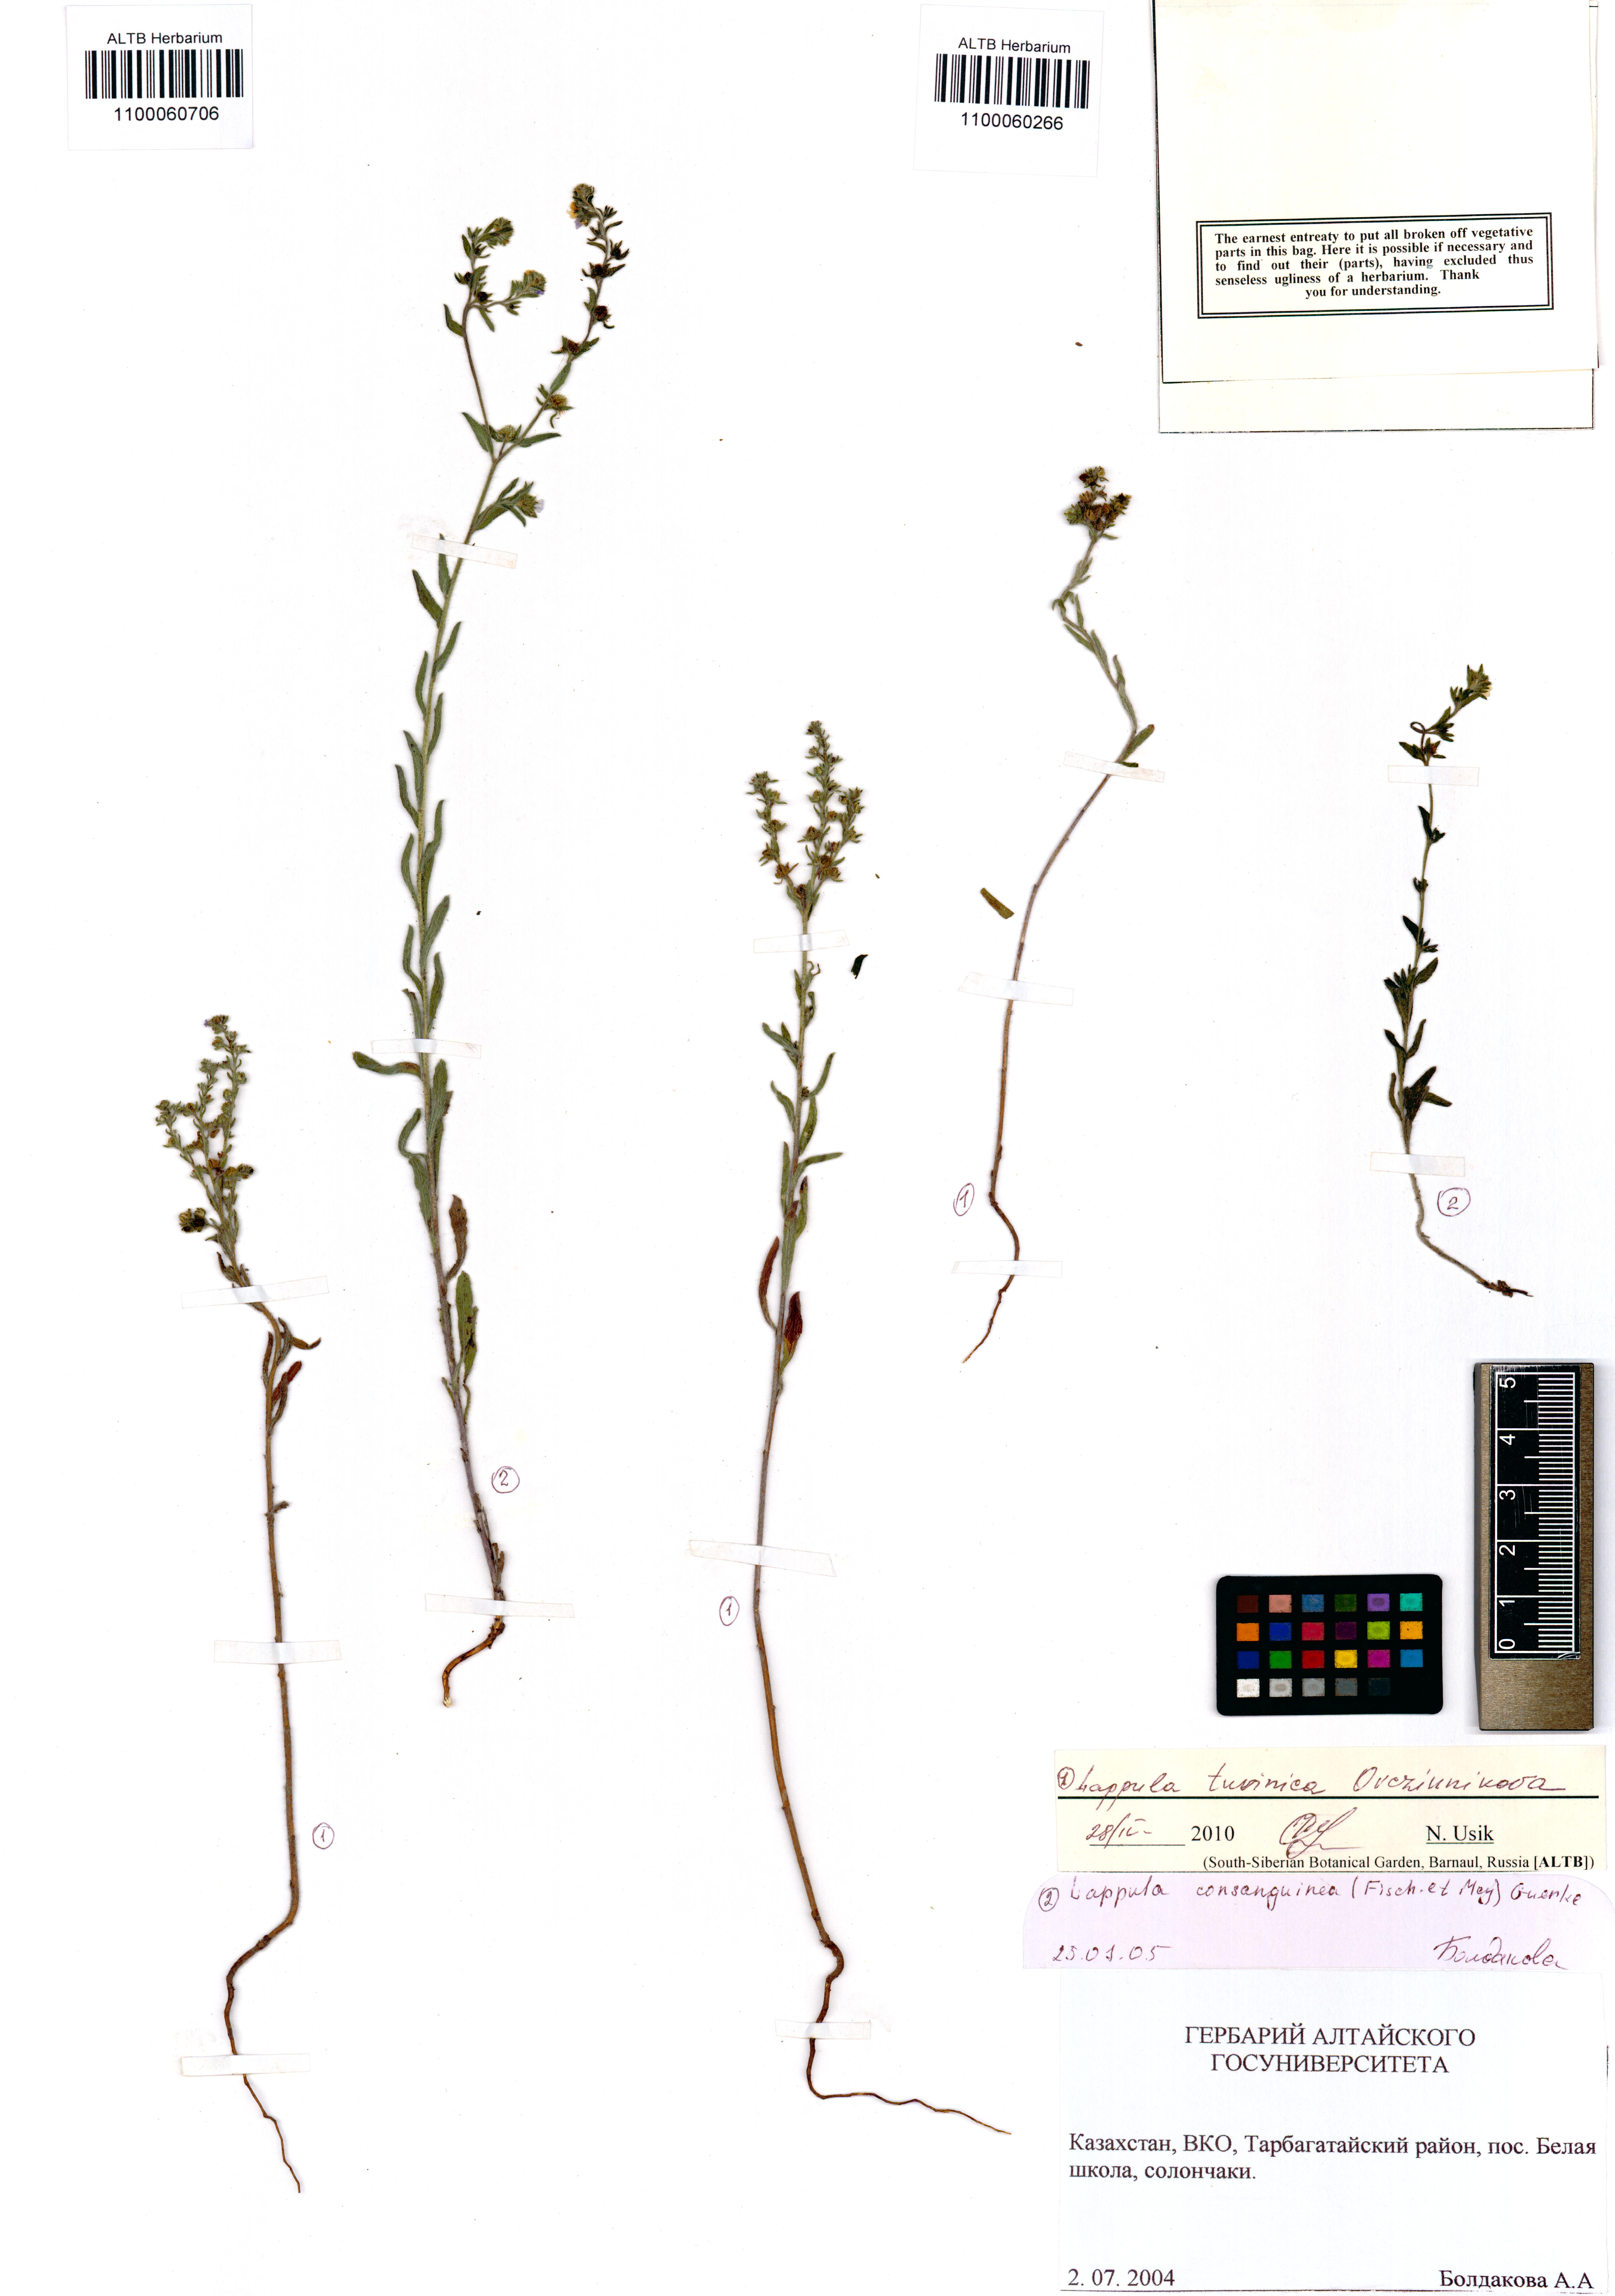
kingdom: Plantae
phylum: Tracheophyta
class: Magnoliopsida
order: Boraginales
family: Boraginaceae
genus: Lappula
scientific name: Lappula tuvinica
